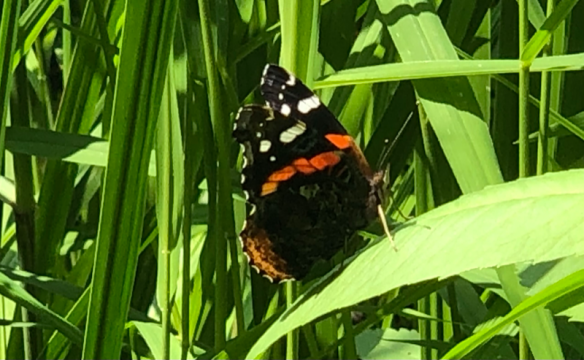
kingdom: Animalia
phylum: Arthropoda
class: Insecta
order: Lepidoptera
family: Nymphalidae
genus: Vanessa
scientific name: Vanessa atalanta
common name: Red Admiral
